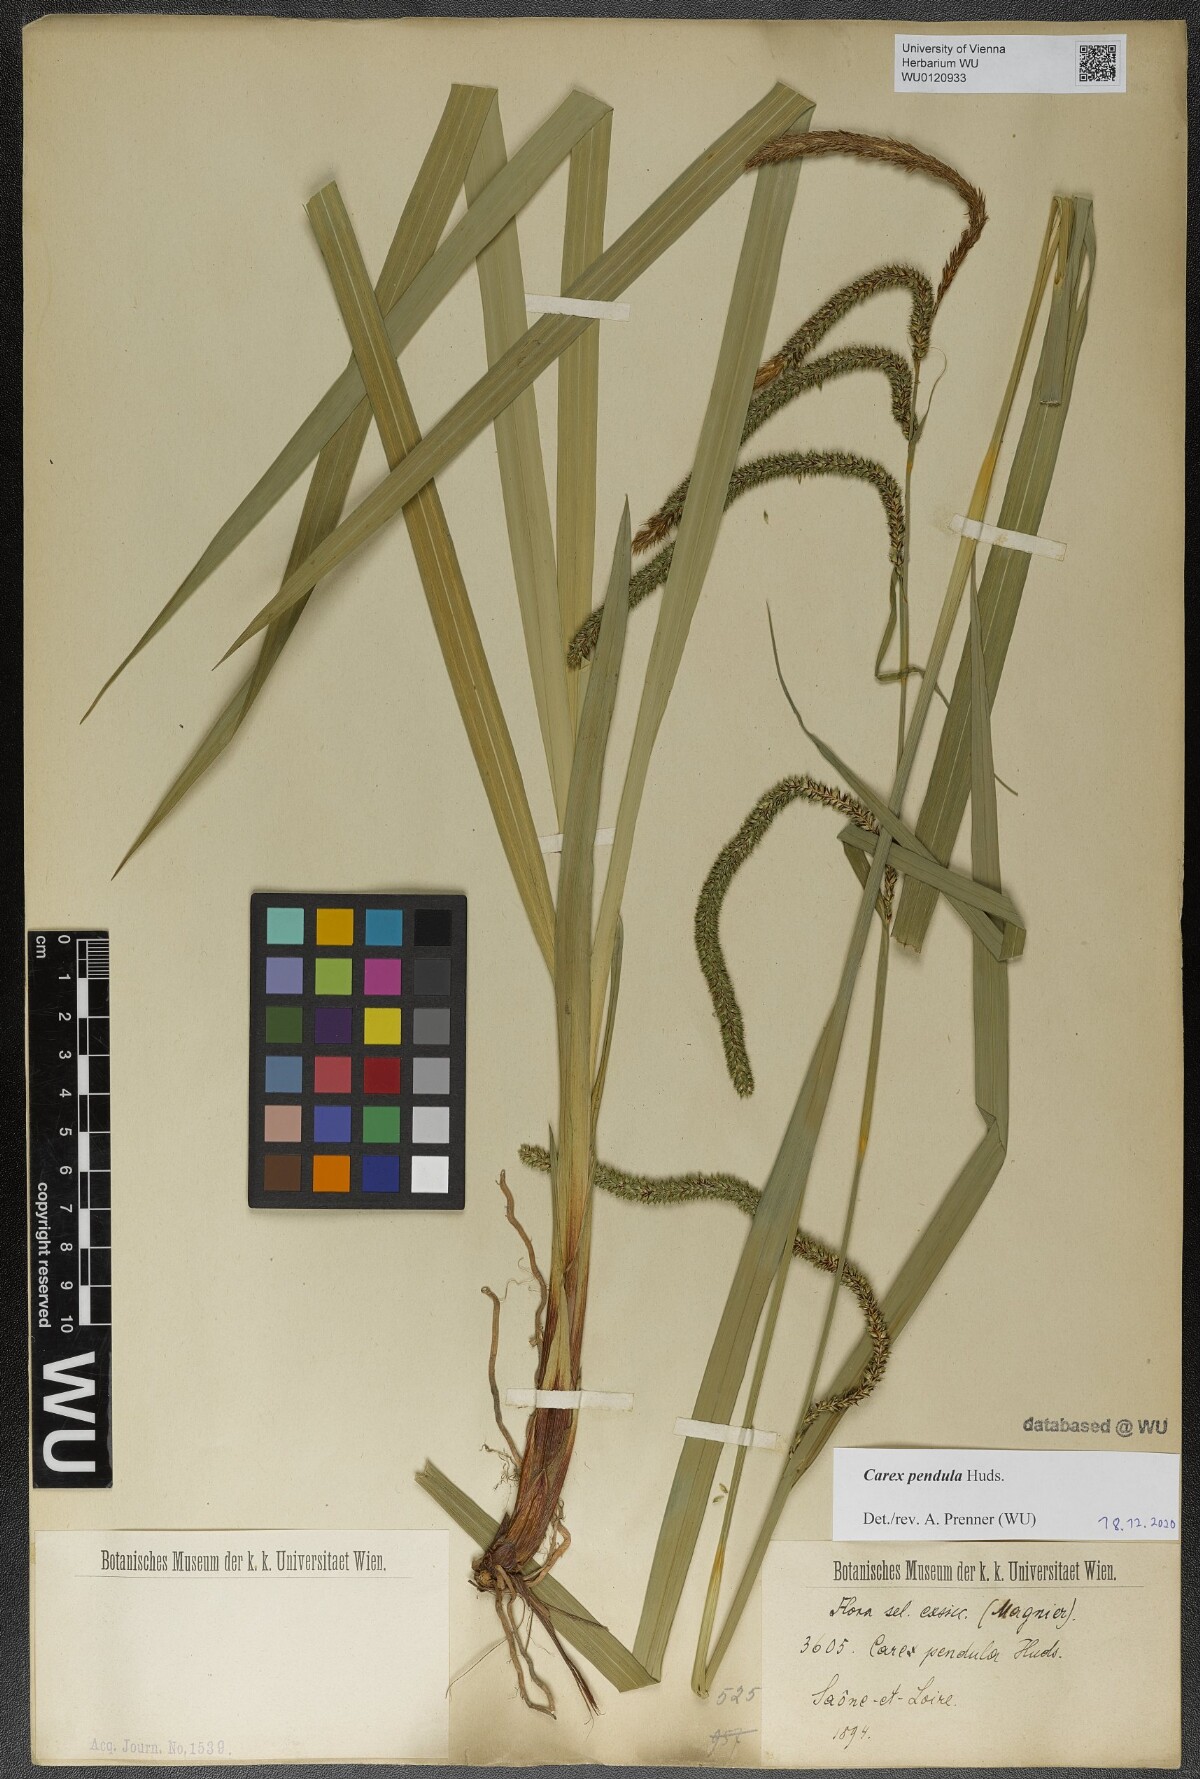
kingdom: Plantae
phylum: Tracheophyta
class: Liliopsida
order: Poales
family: Cyperaceae
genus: Carex
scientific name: Carex pendula
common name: Pendulous sedge
